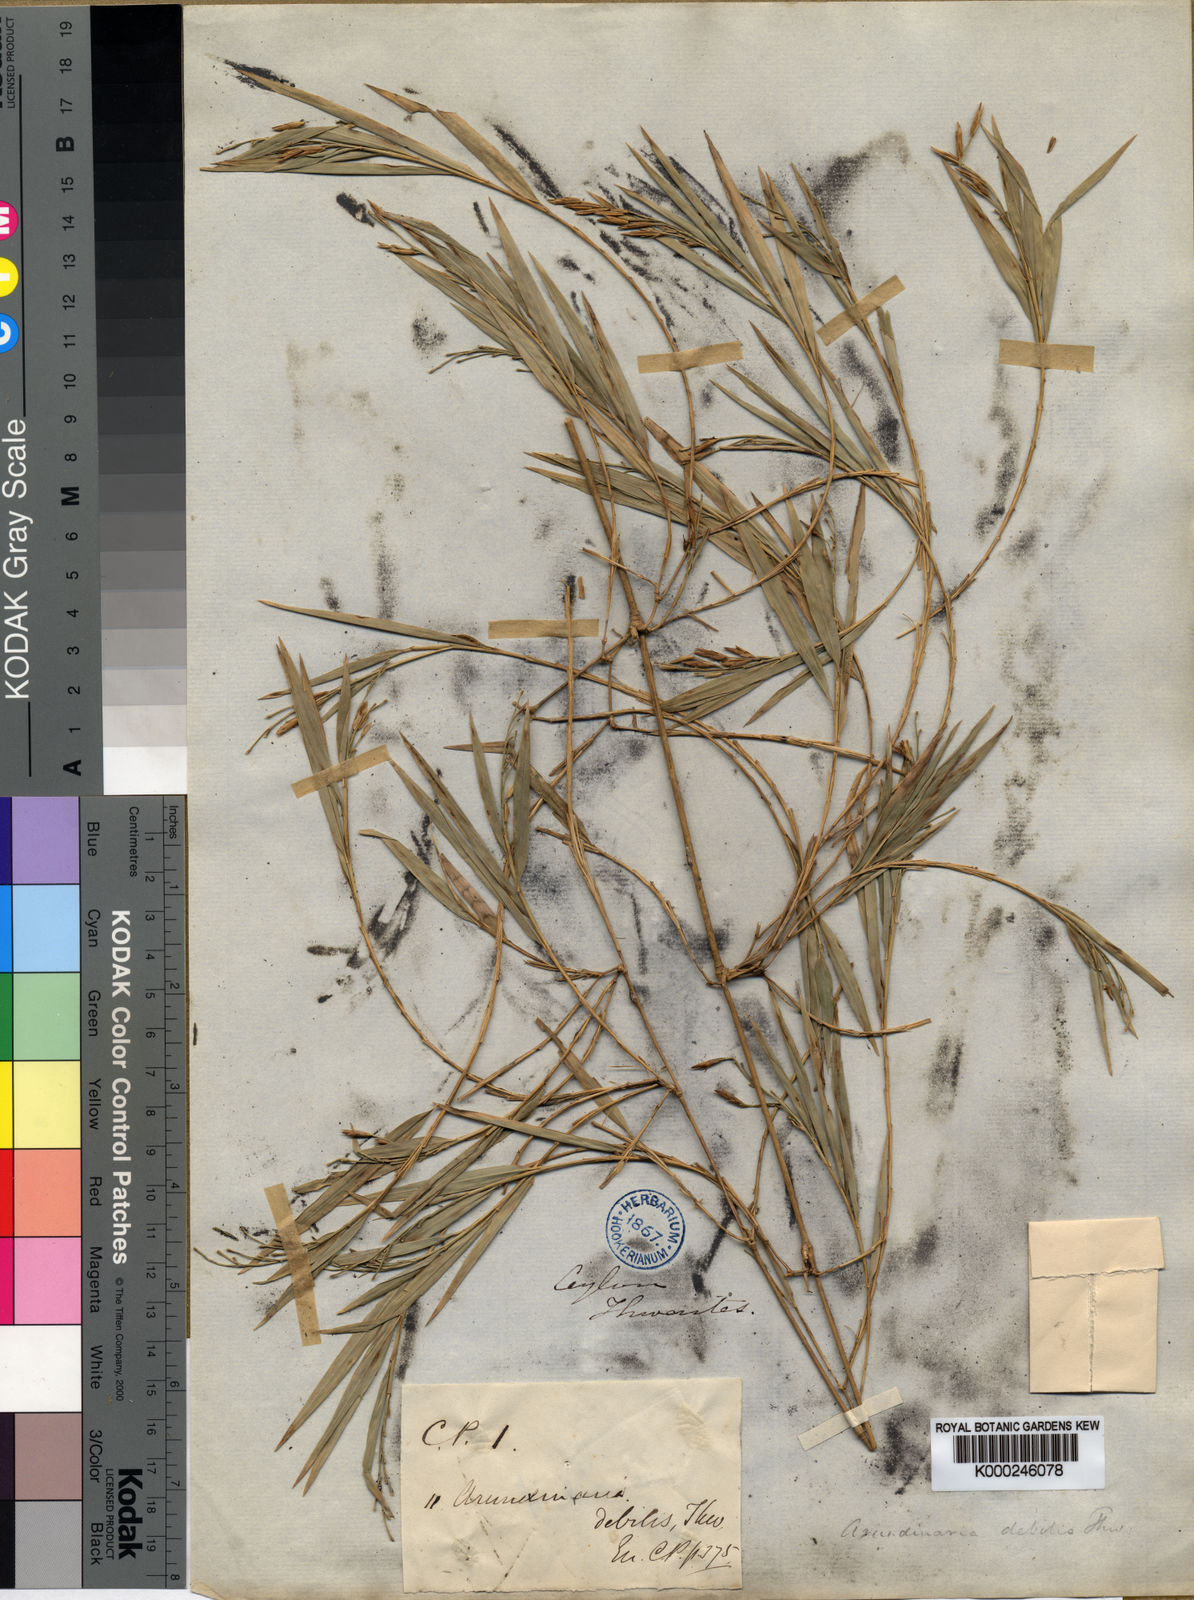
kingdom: Plantae
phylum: Tracheophyta
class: Liliopsida
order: Poales
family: Poaceae
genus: Kuruna
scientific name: Kuruna debilis
